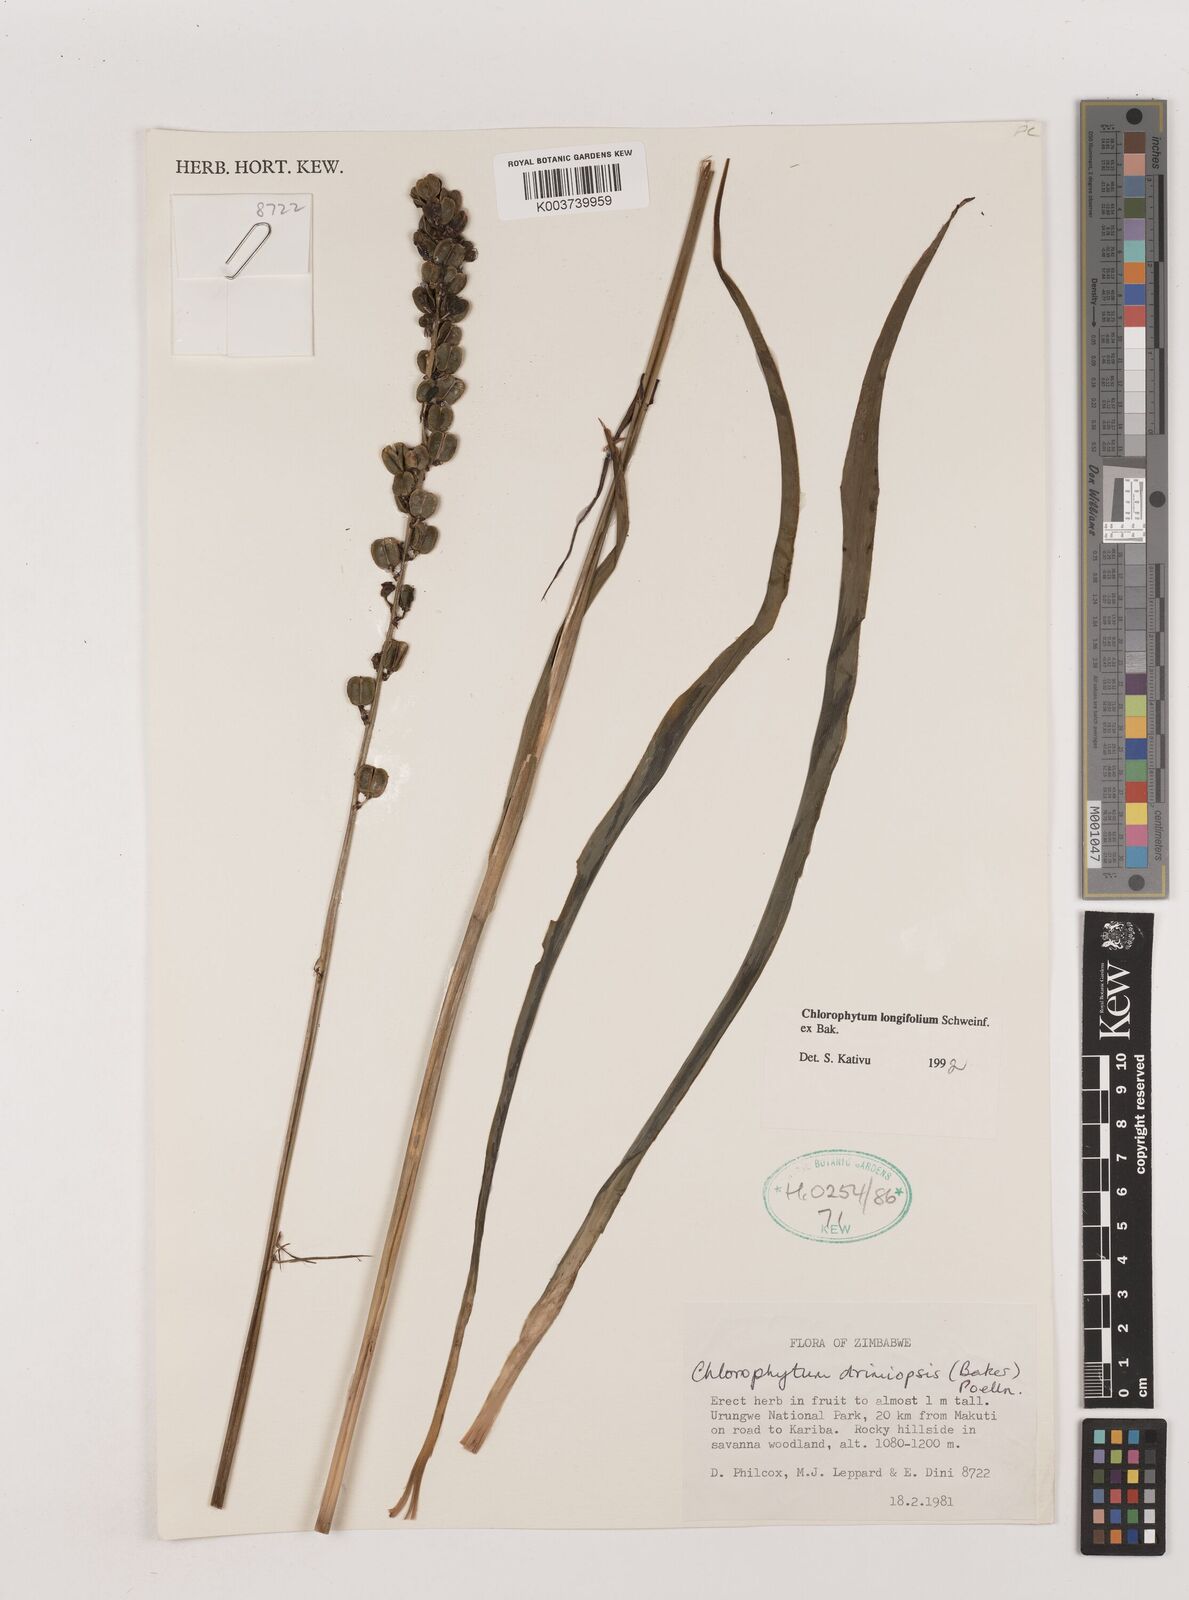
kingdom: Plantae
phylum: Tracheophyta
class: Liliopsida
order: Asparagales
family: Asparagaceae
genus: Chlorophytum
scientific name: Chlorophytum longifolium
